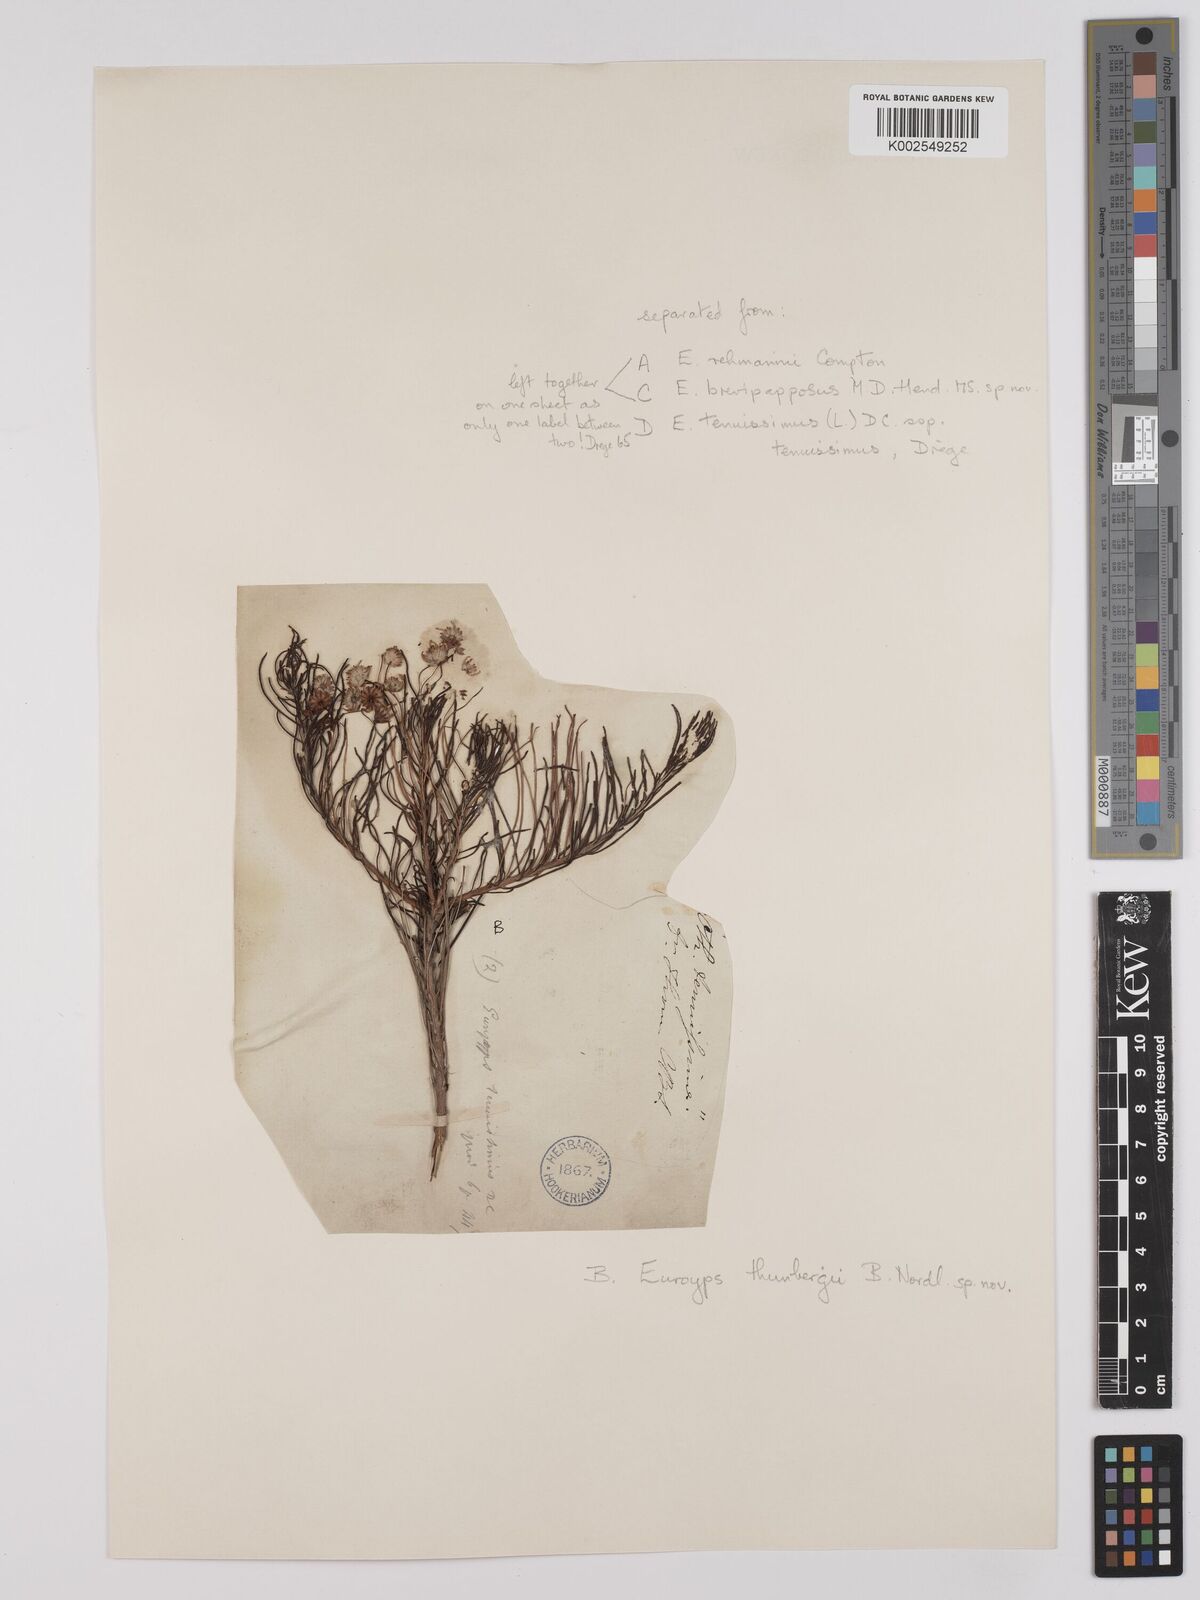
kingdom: Plantae
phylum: Tracheophyta
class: Magnoliopsida
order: Asterales
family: Asteraceae
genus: Euryops
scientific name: Euryops thunbergii
